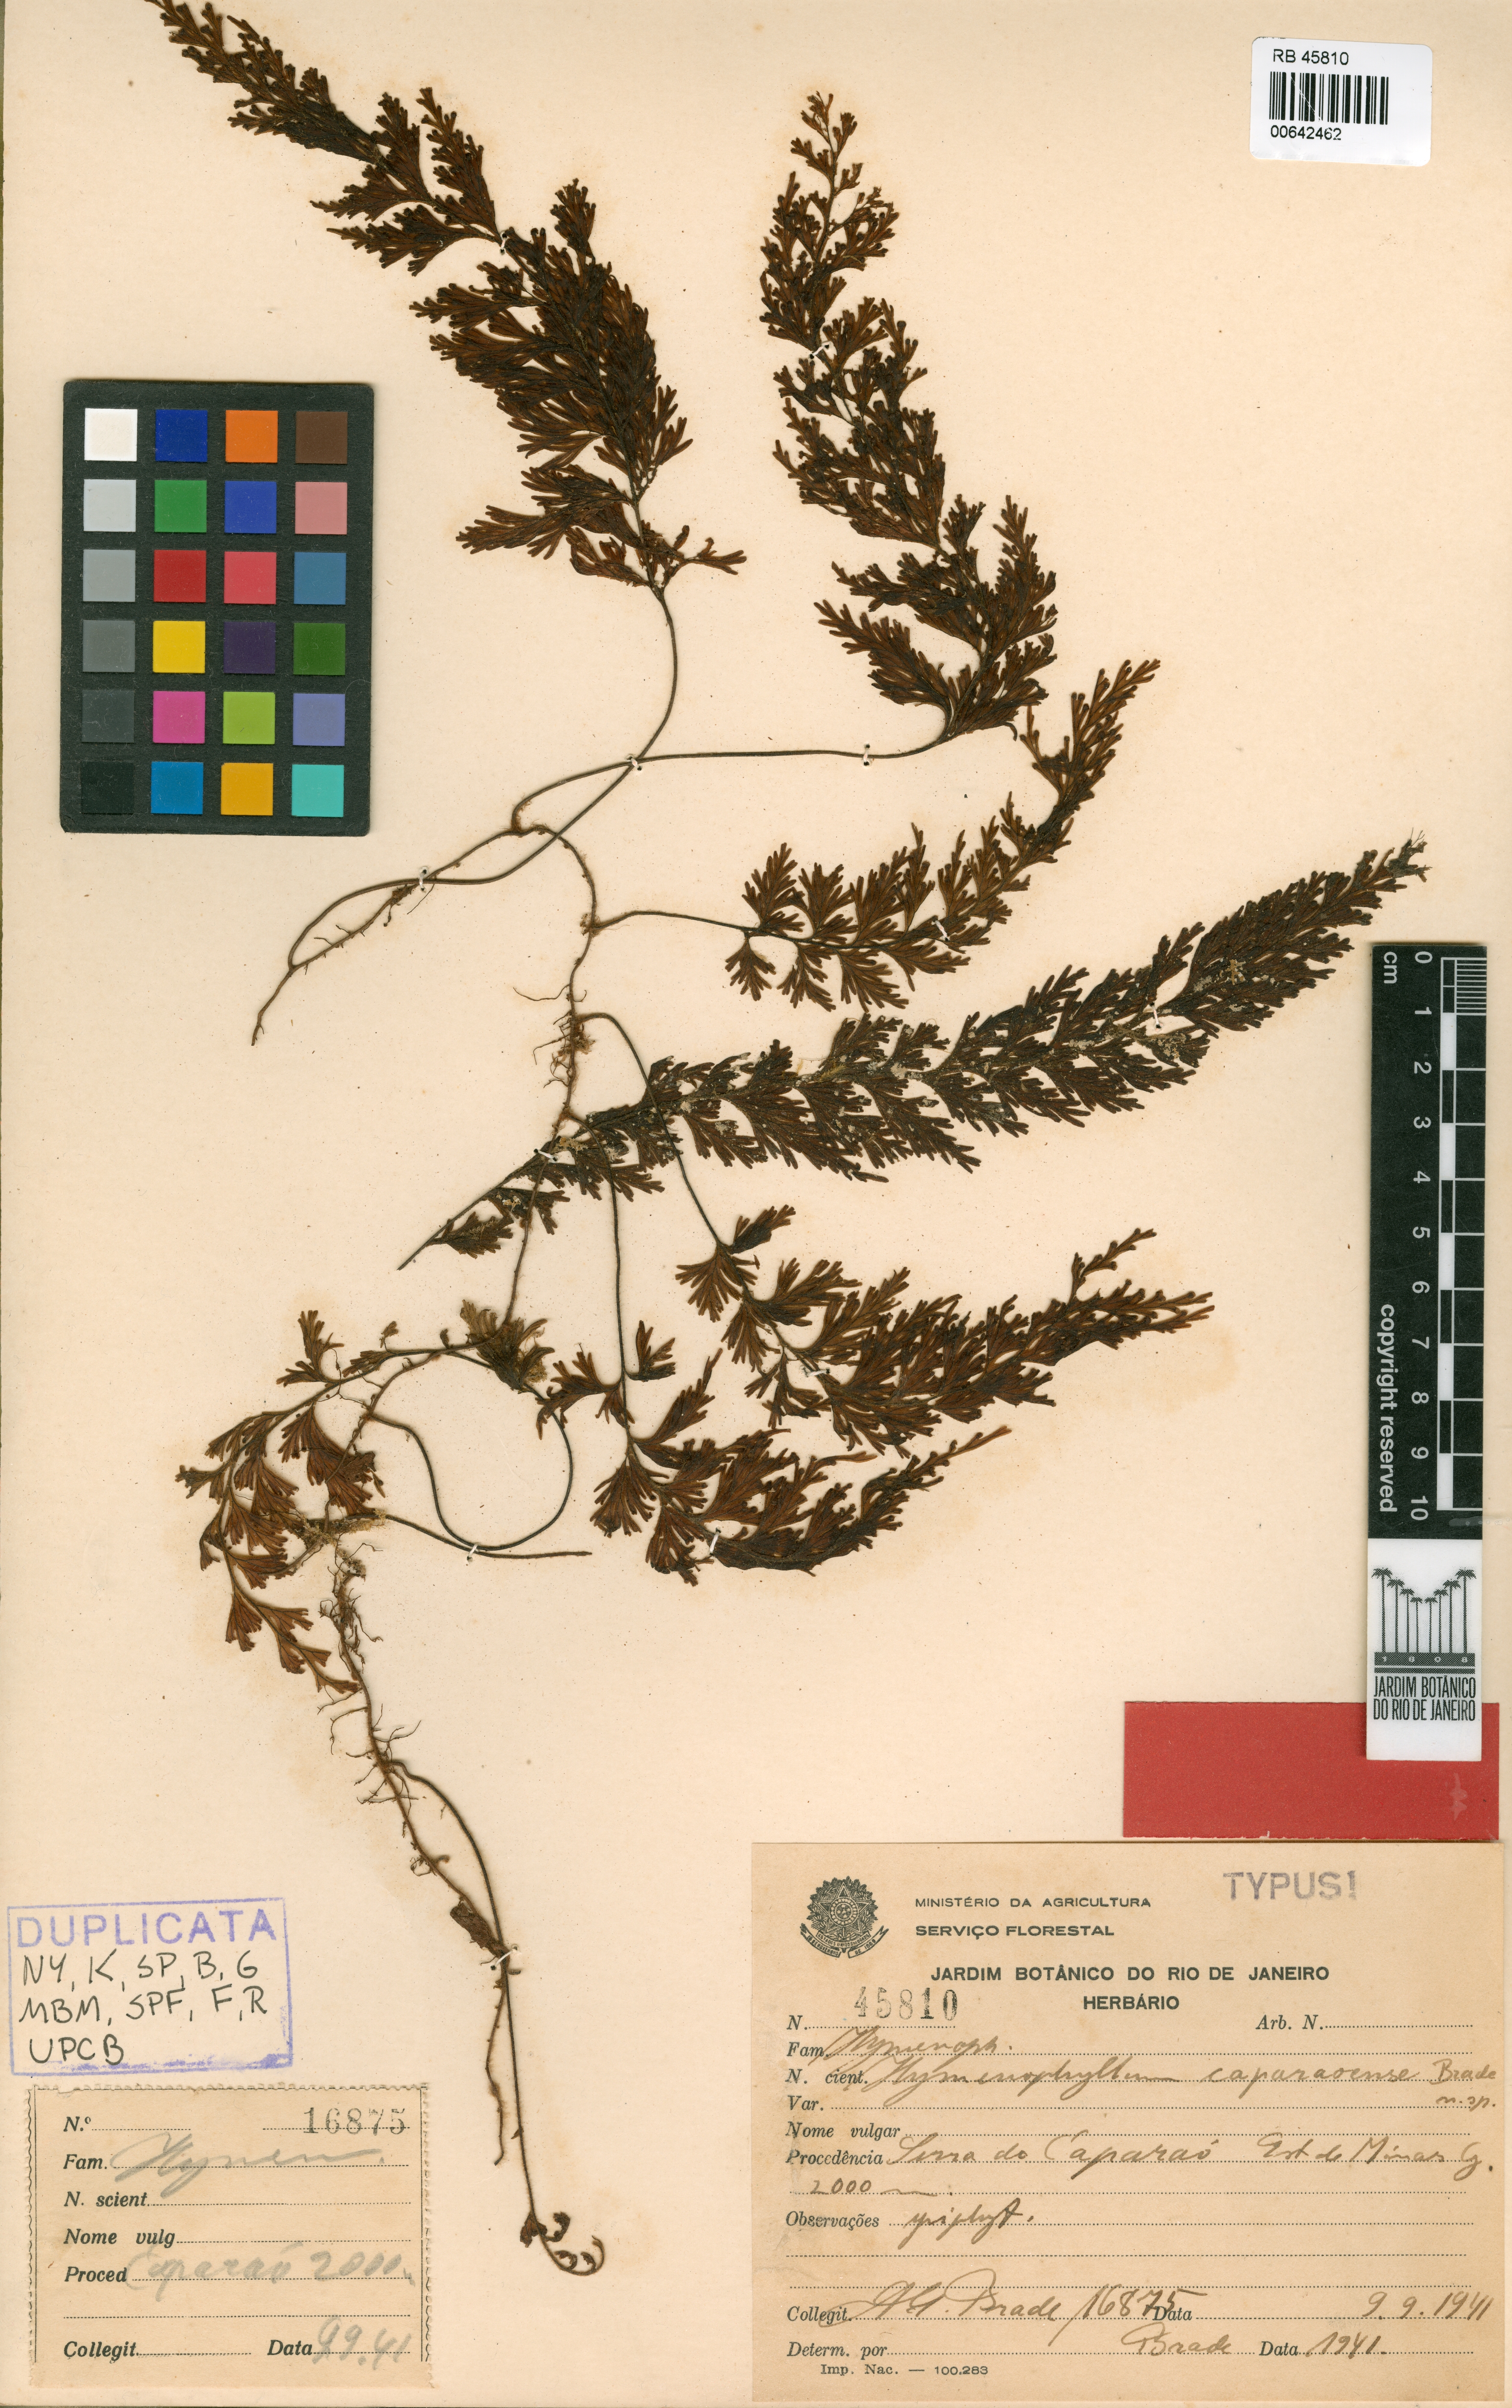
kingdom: Plantae
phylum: Tracheophyta
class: Polypodiopsida
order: Hymenophyllales
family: Hymenophyllaceae
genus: Hymenophyllum
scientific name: Hymenophyllum caparaoense
